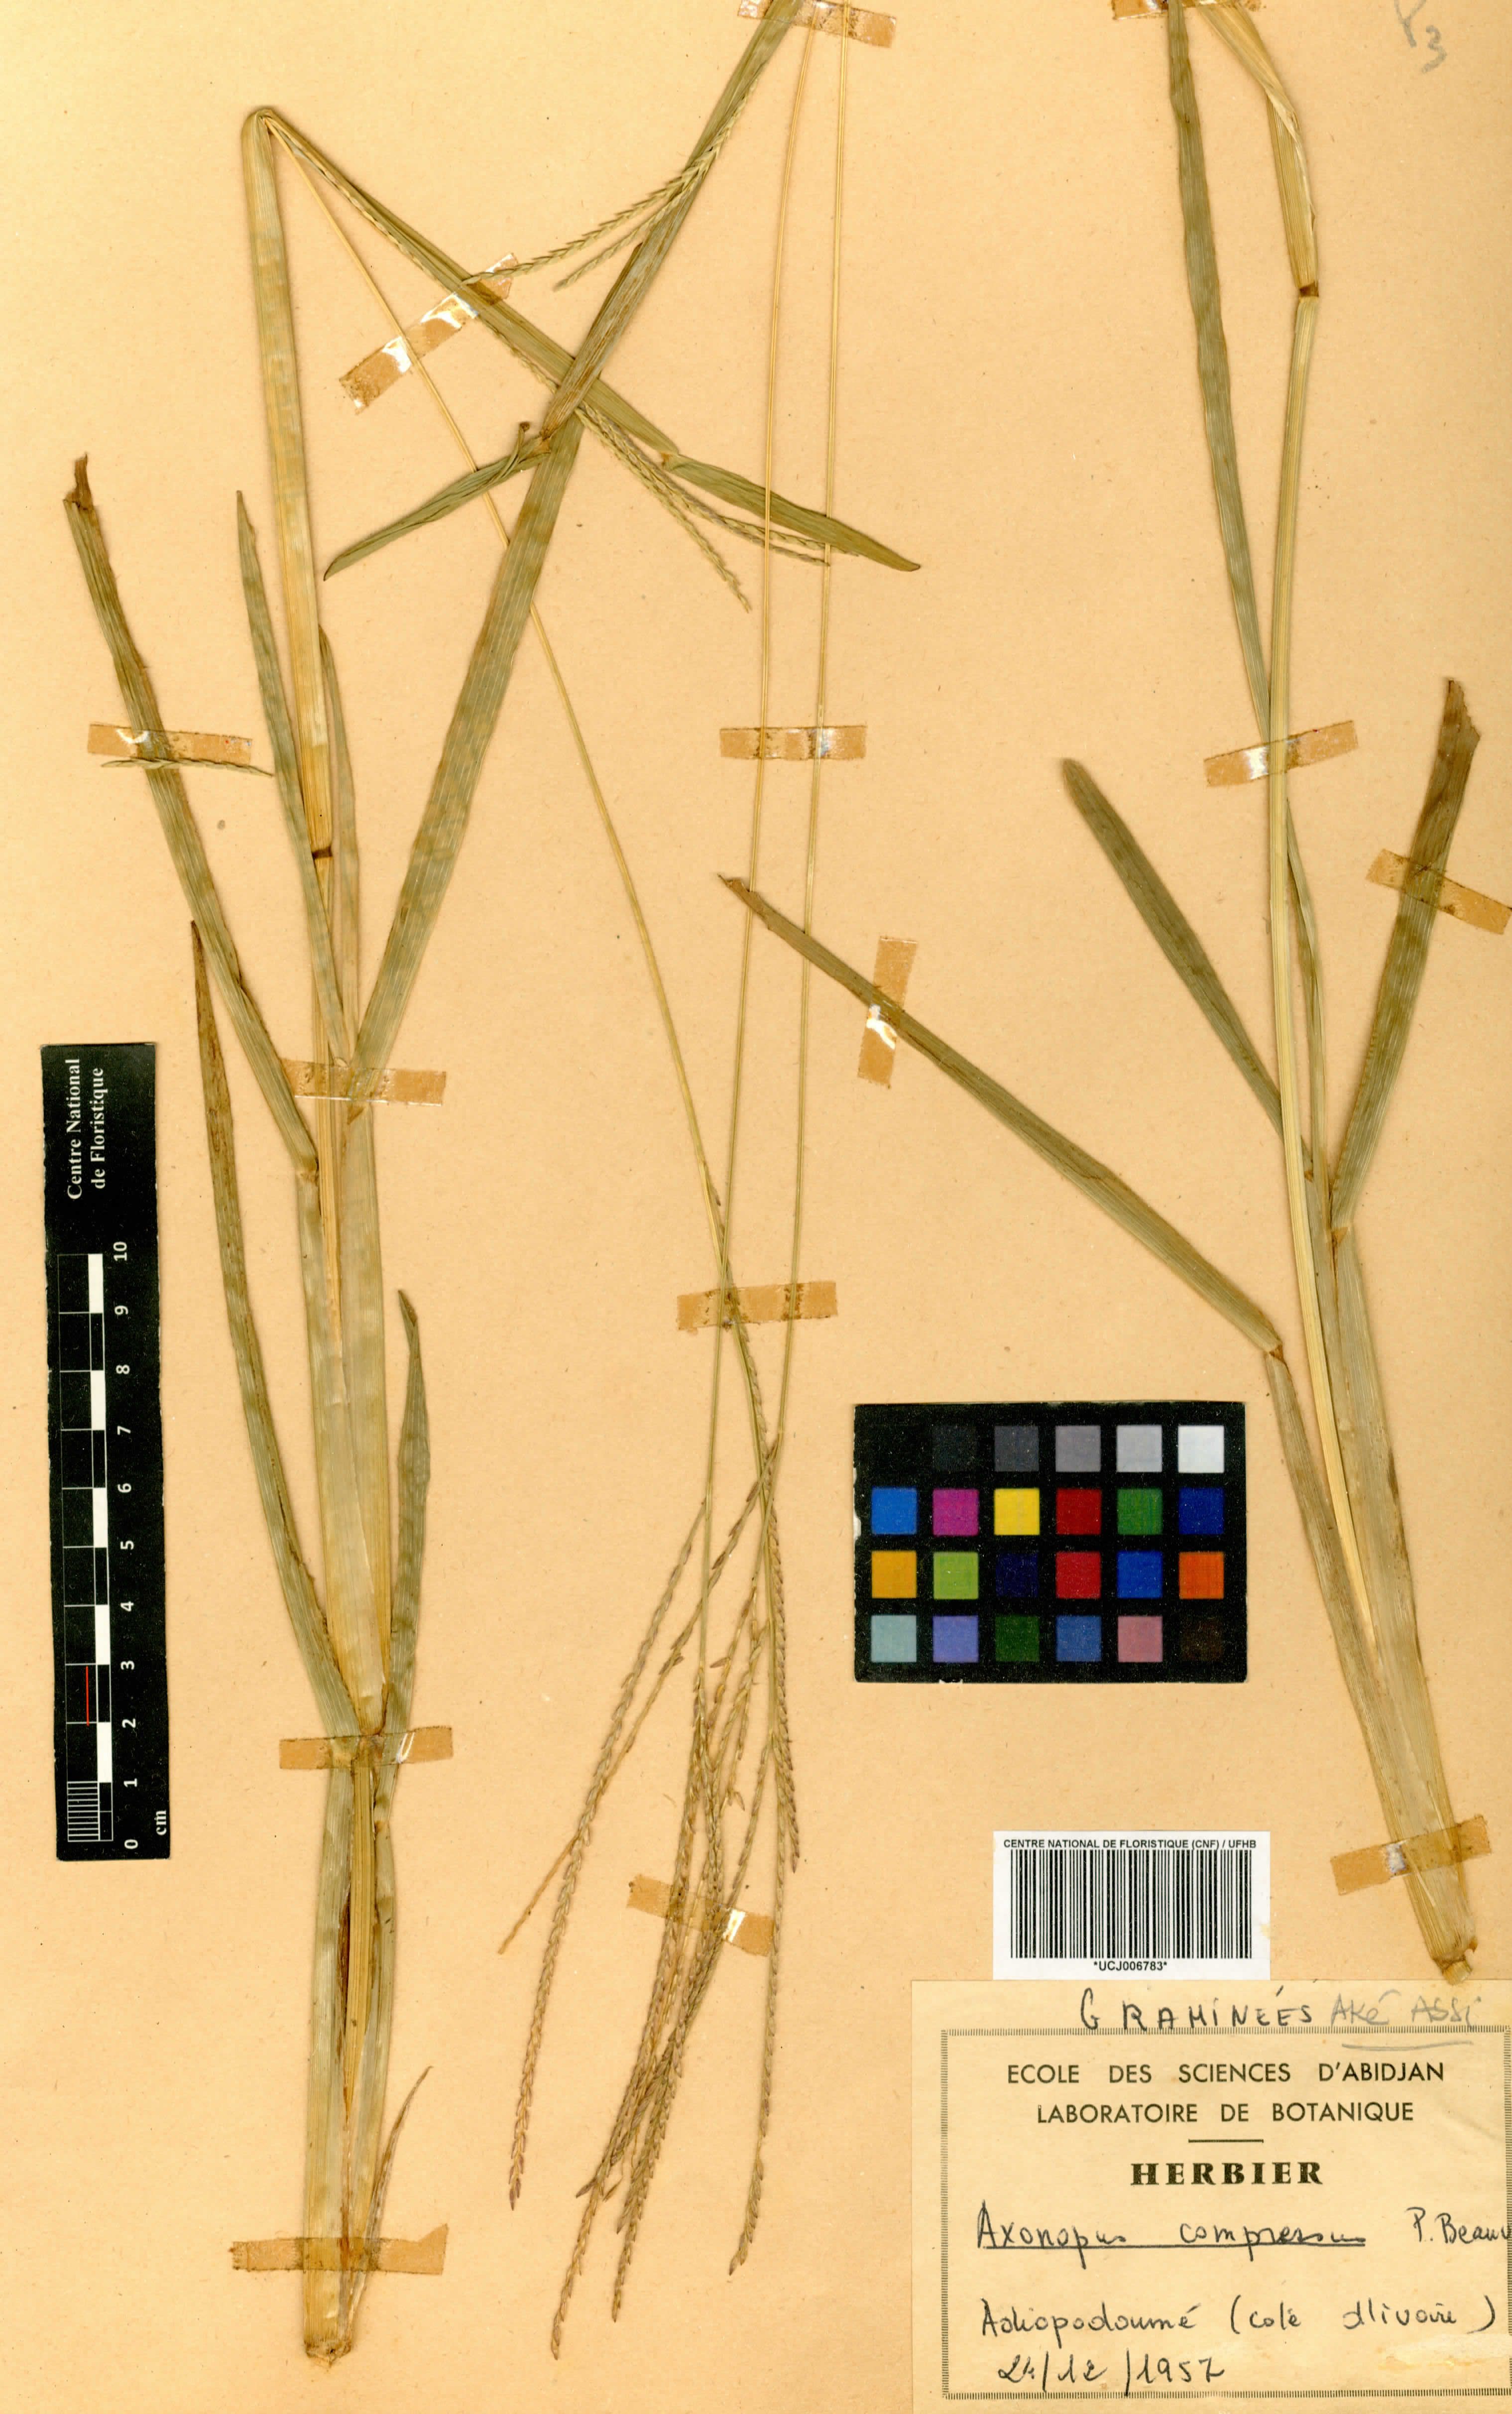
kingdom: Plantae
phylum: Tracheophyta
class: Liliopsida
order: Poales
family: Poaceae
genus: Axonopus
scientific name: Axonopus compressus
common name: American carpet grass
